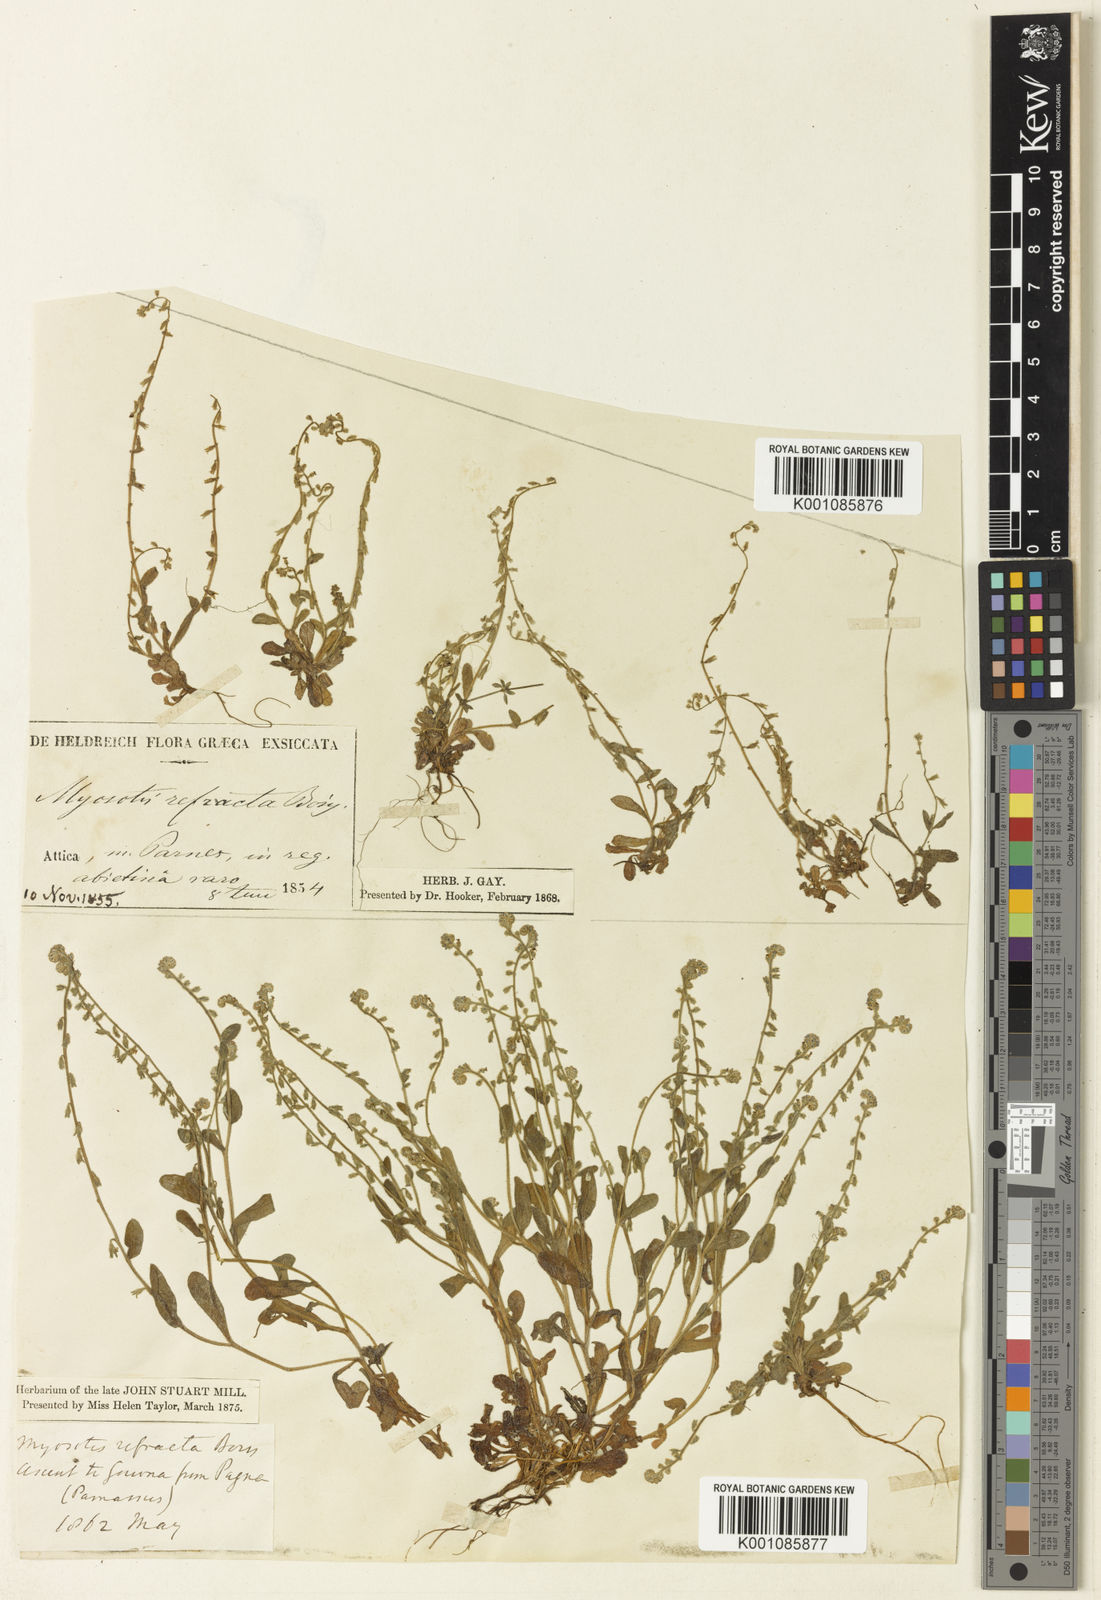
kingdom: Plantae
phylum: Tracheophyta
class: Magnoliopsida
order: Boraginales
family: Boraginaceae
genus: Myosotis
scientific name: Myosotis refracta
